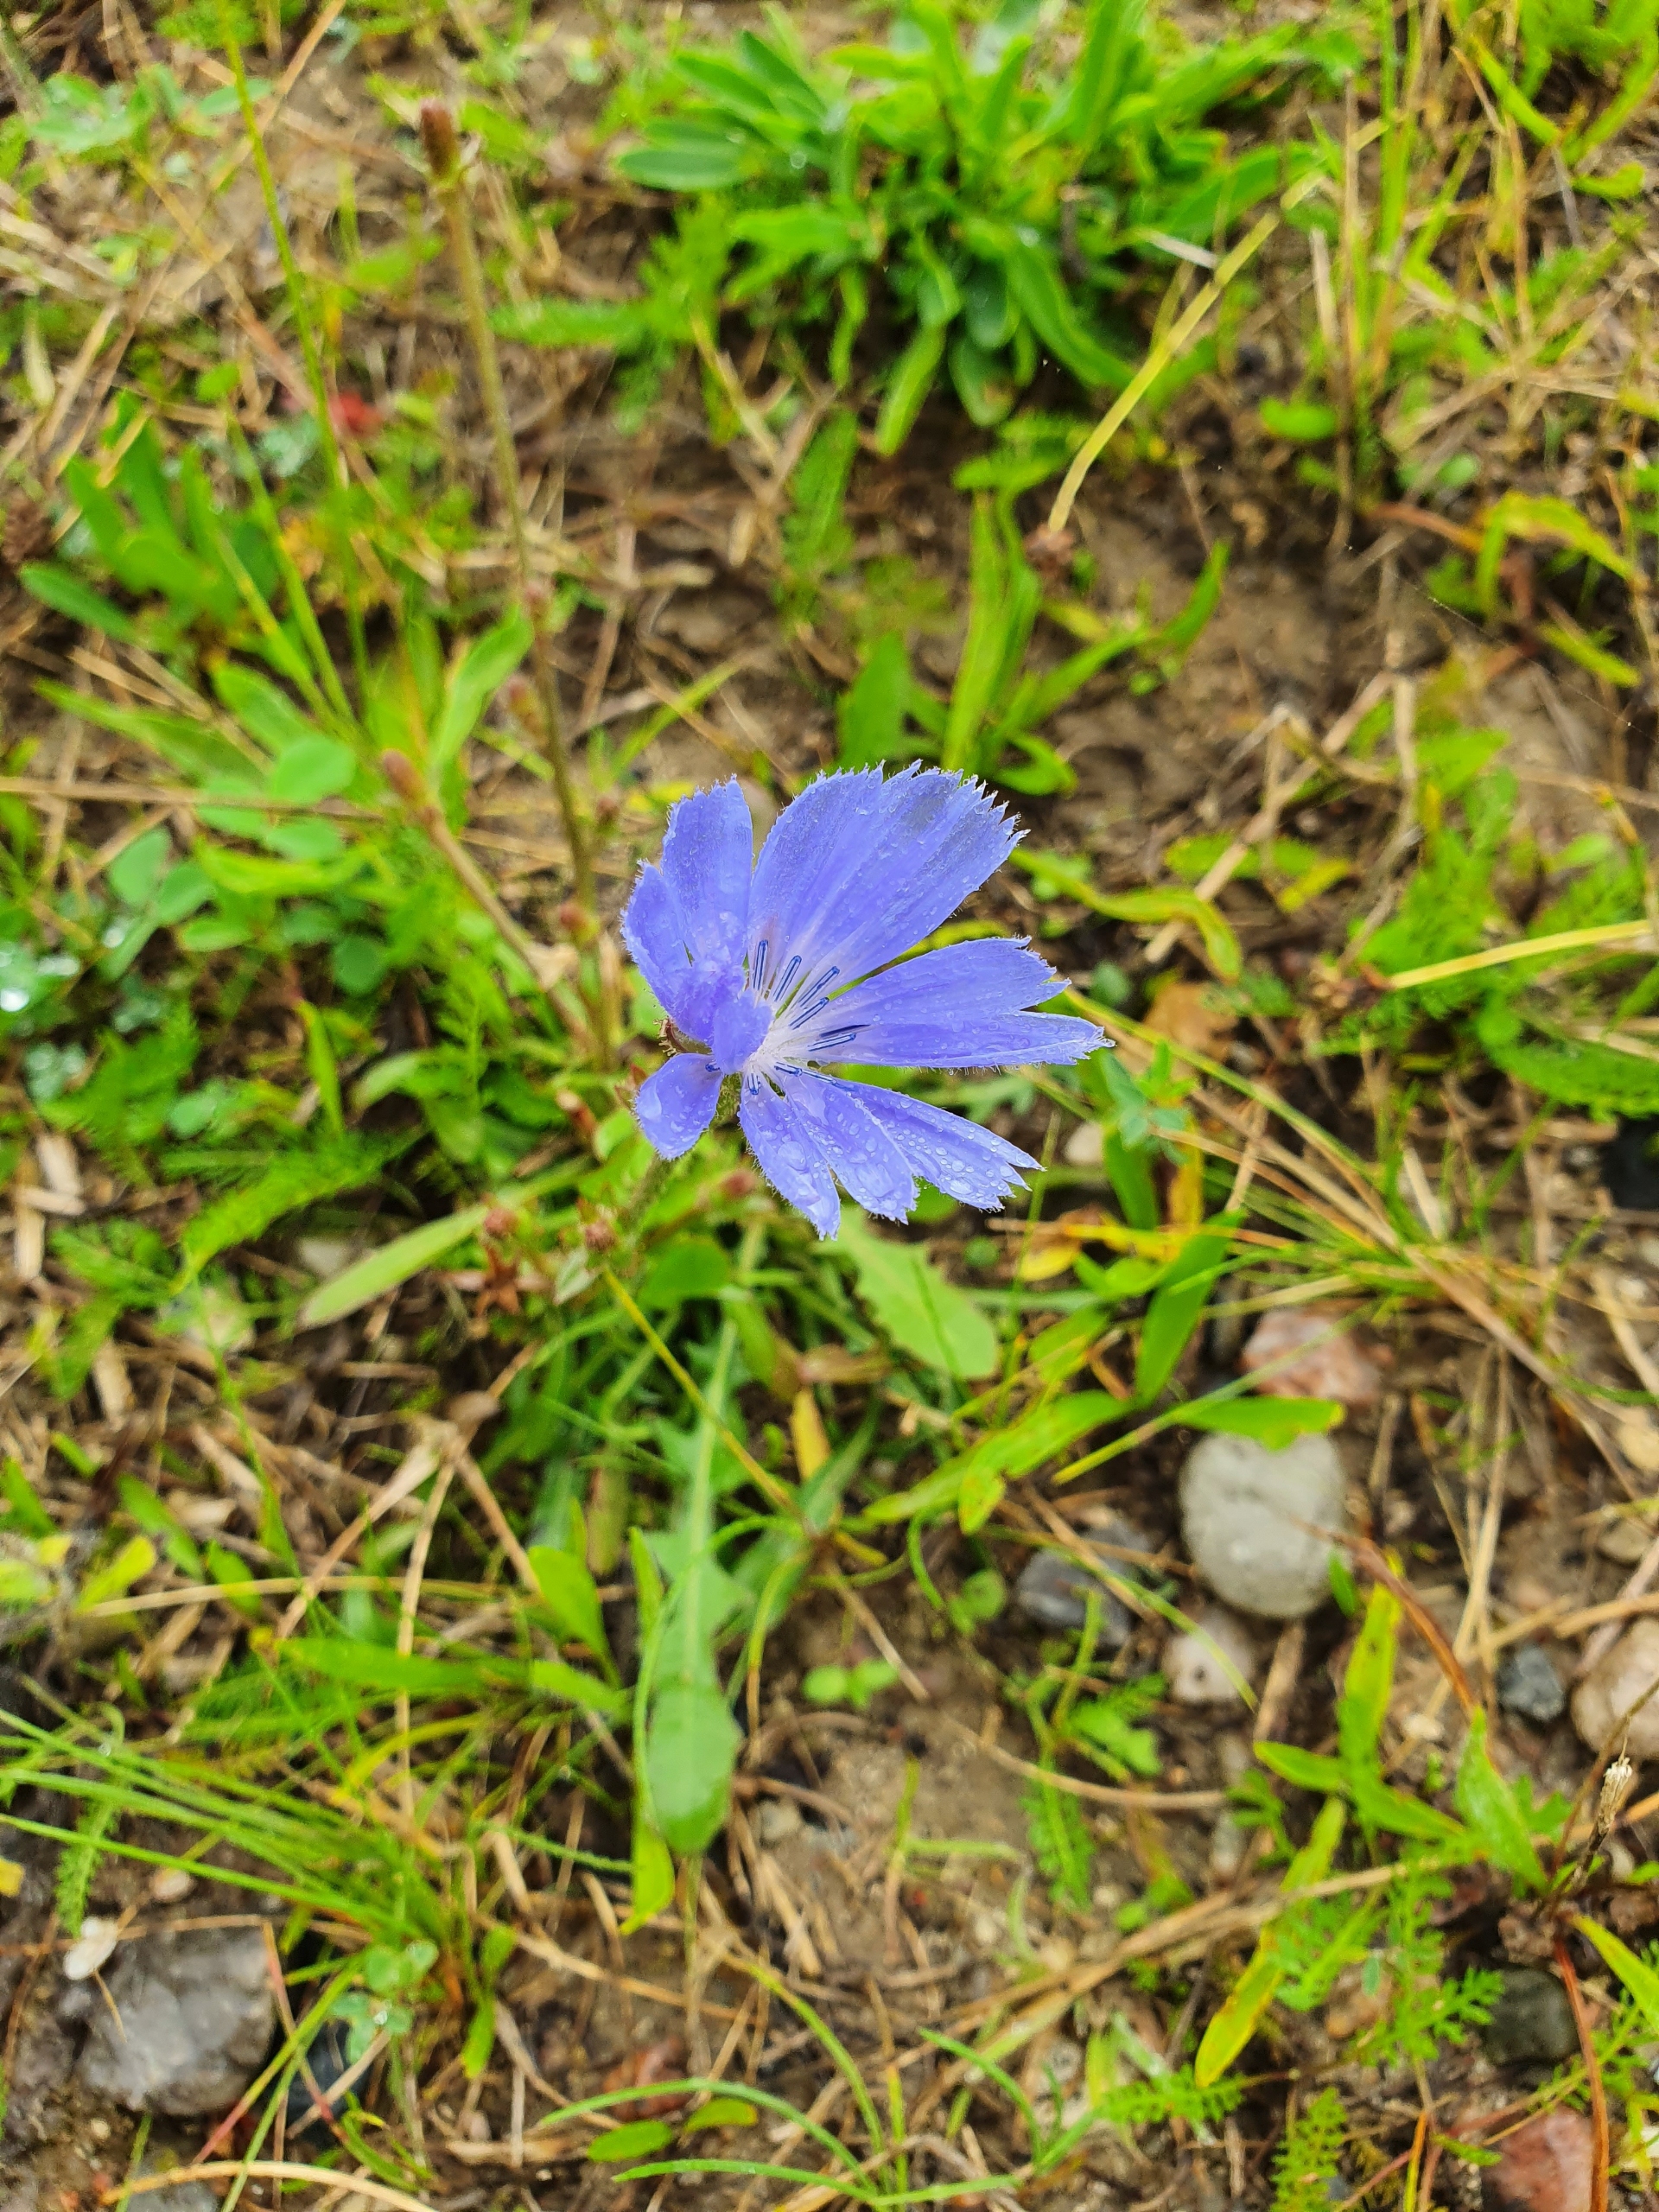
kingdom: Plantae
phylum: Tracheophyta
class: Magnoliopsida
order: Asterales
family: Asteraceae
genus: Cichorium
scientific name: Cichorium intybus
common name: Cikorie
